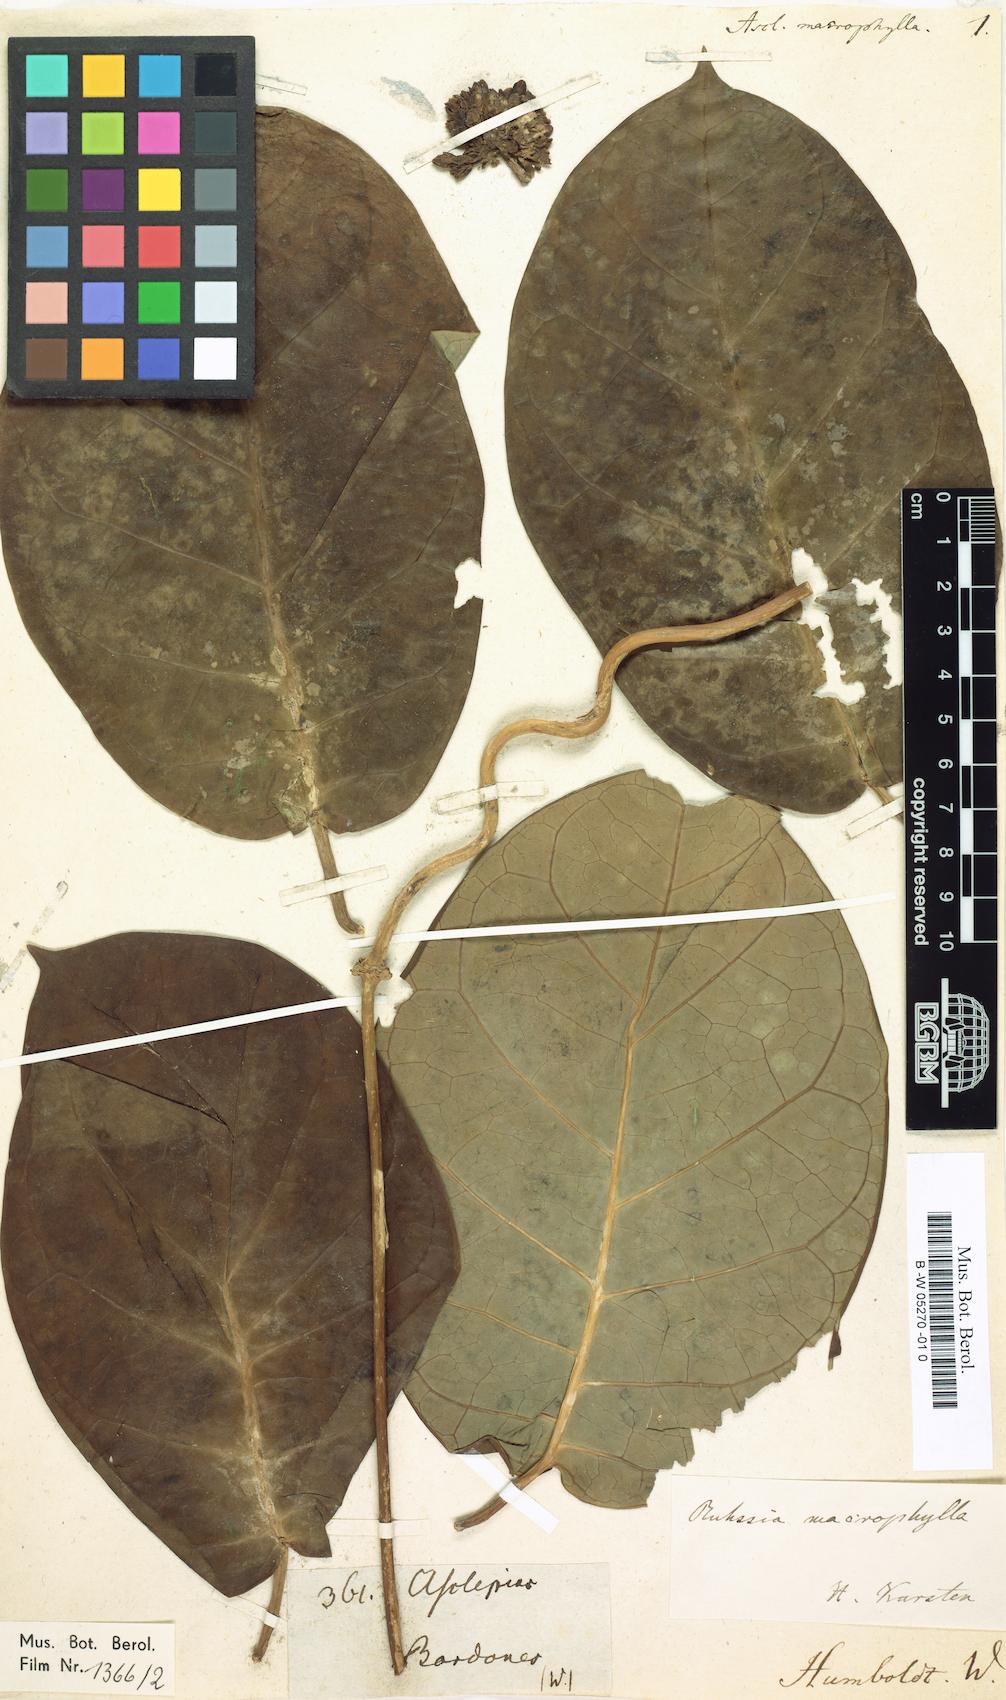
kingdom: Plantae
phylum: Tracheophyta
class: Magnoliopsida
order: Gentianales
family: Apocynaceae
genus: Ruehssia
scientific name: Ruehssia macrophylla
